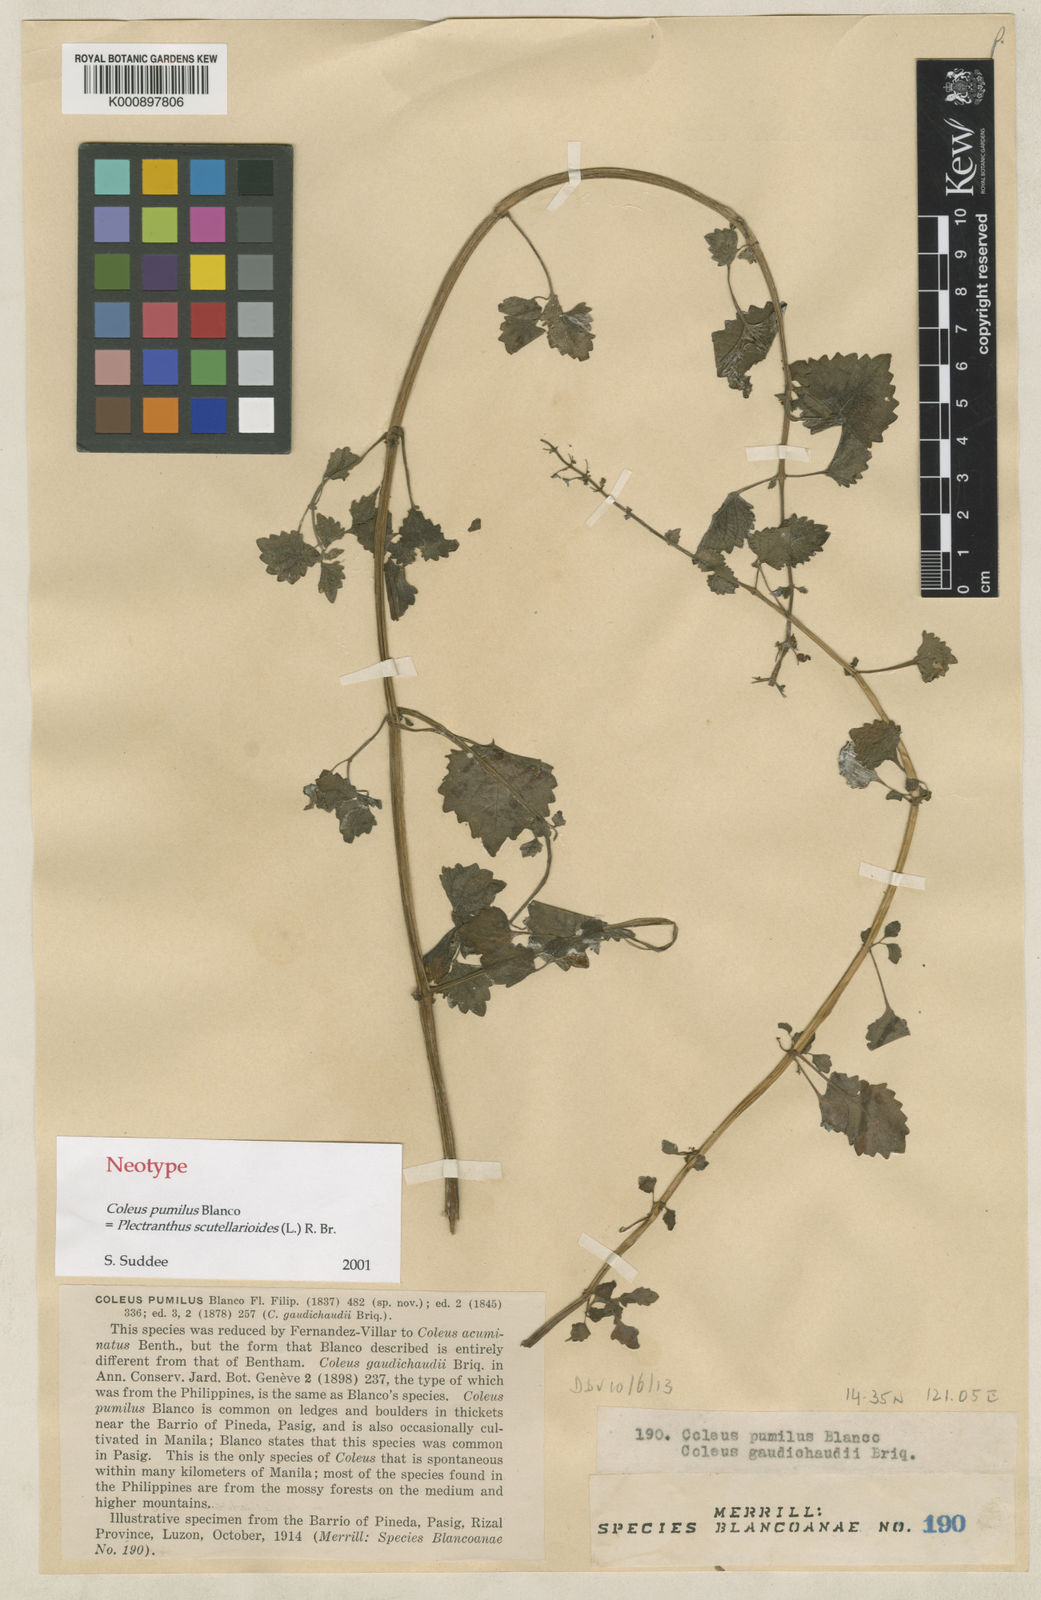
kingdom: Plantae
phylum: Tracheophyta
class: Magnoliopsida
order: Lamiales
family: Lamiaceae
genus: Coleus
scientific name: Coleus scutellarioides
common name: Coleus
